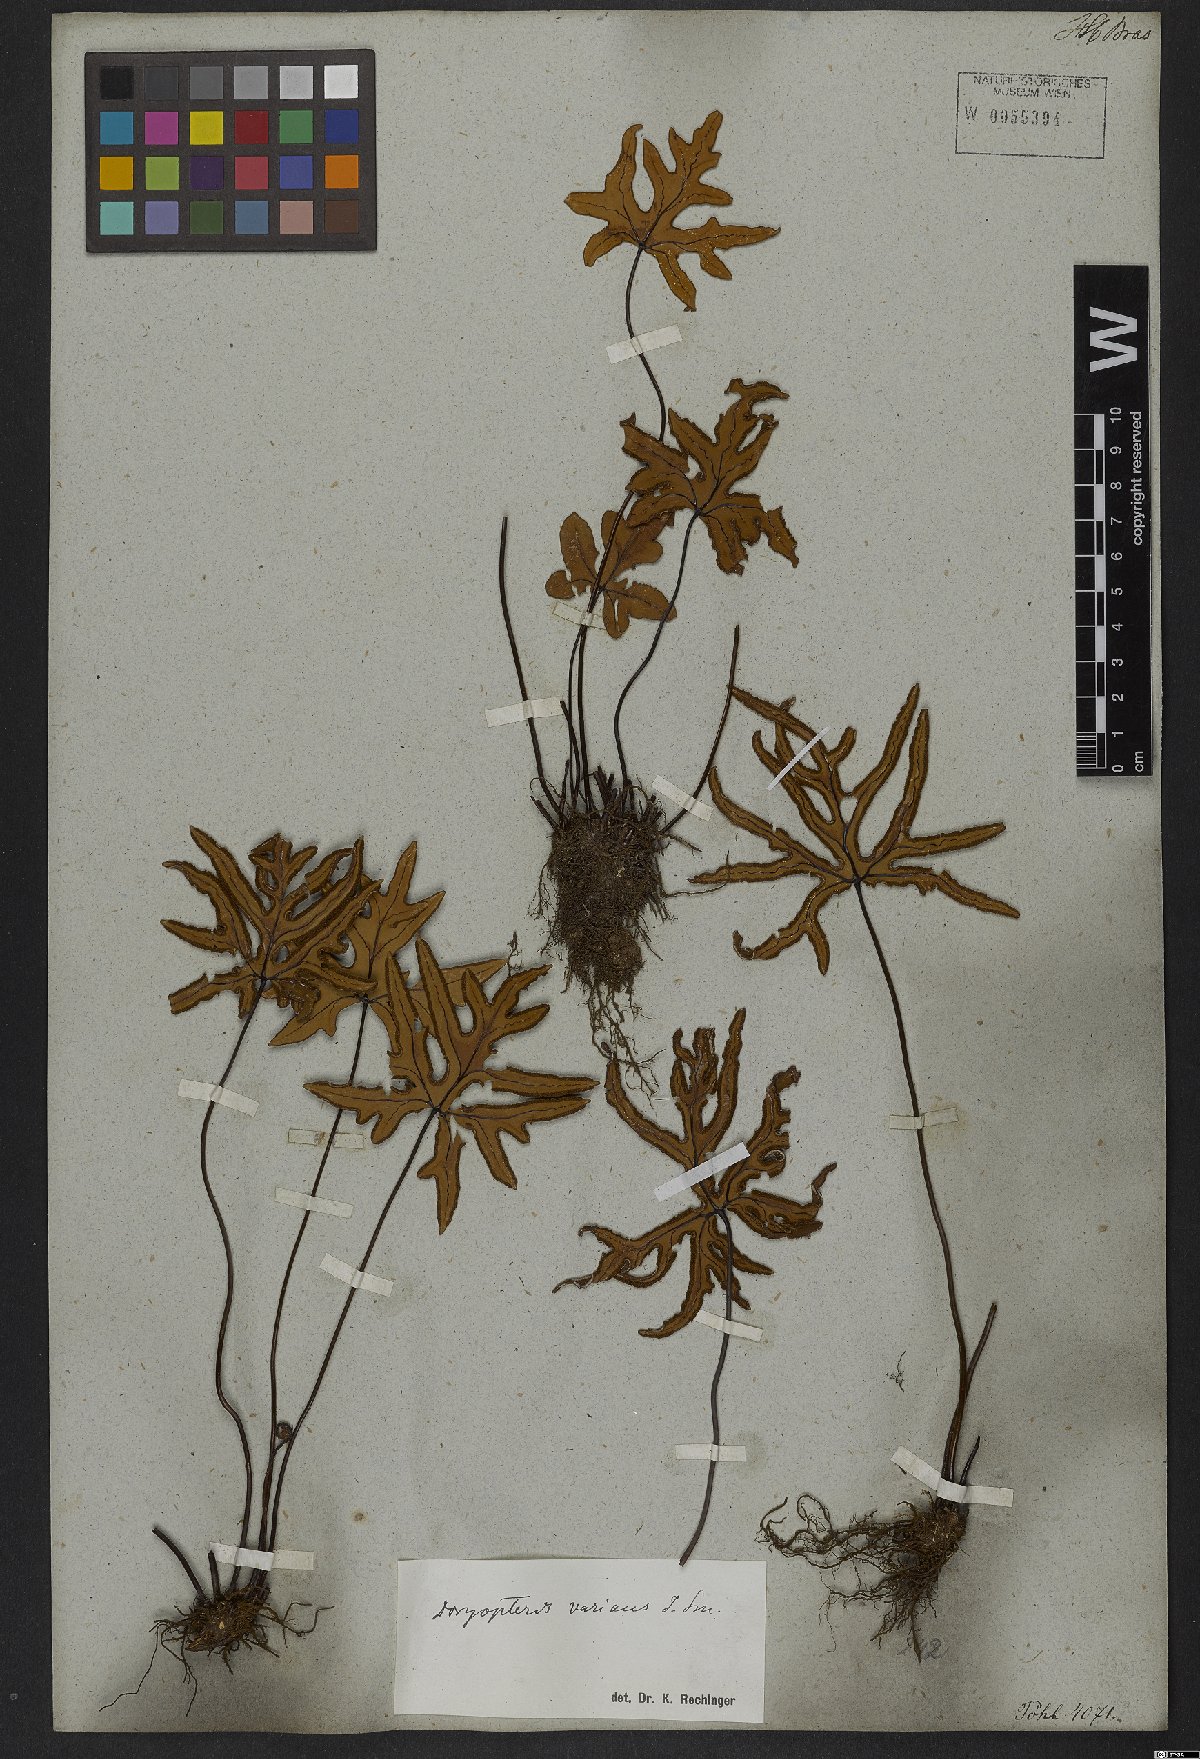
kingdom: Plantae
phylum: Tracheophyta
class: Polypodiopsida
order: Polypodiales
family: Pteridaceae
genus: Doryopteris
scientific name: Doryopteris varians
